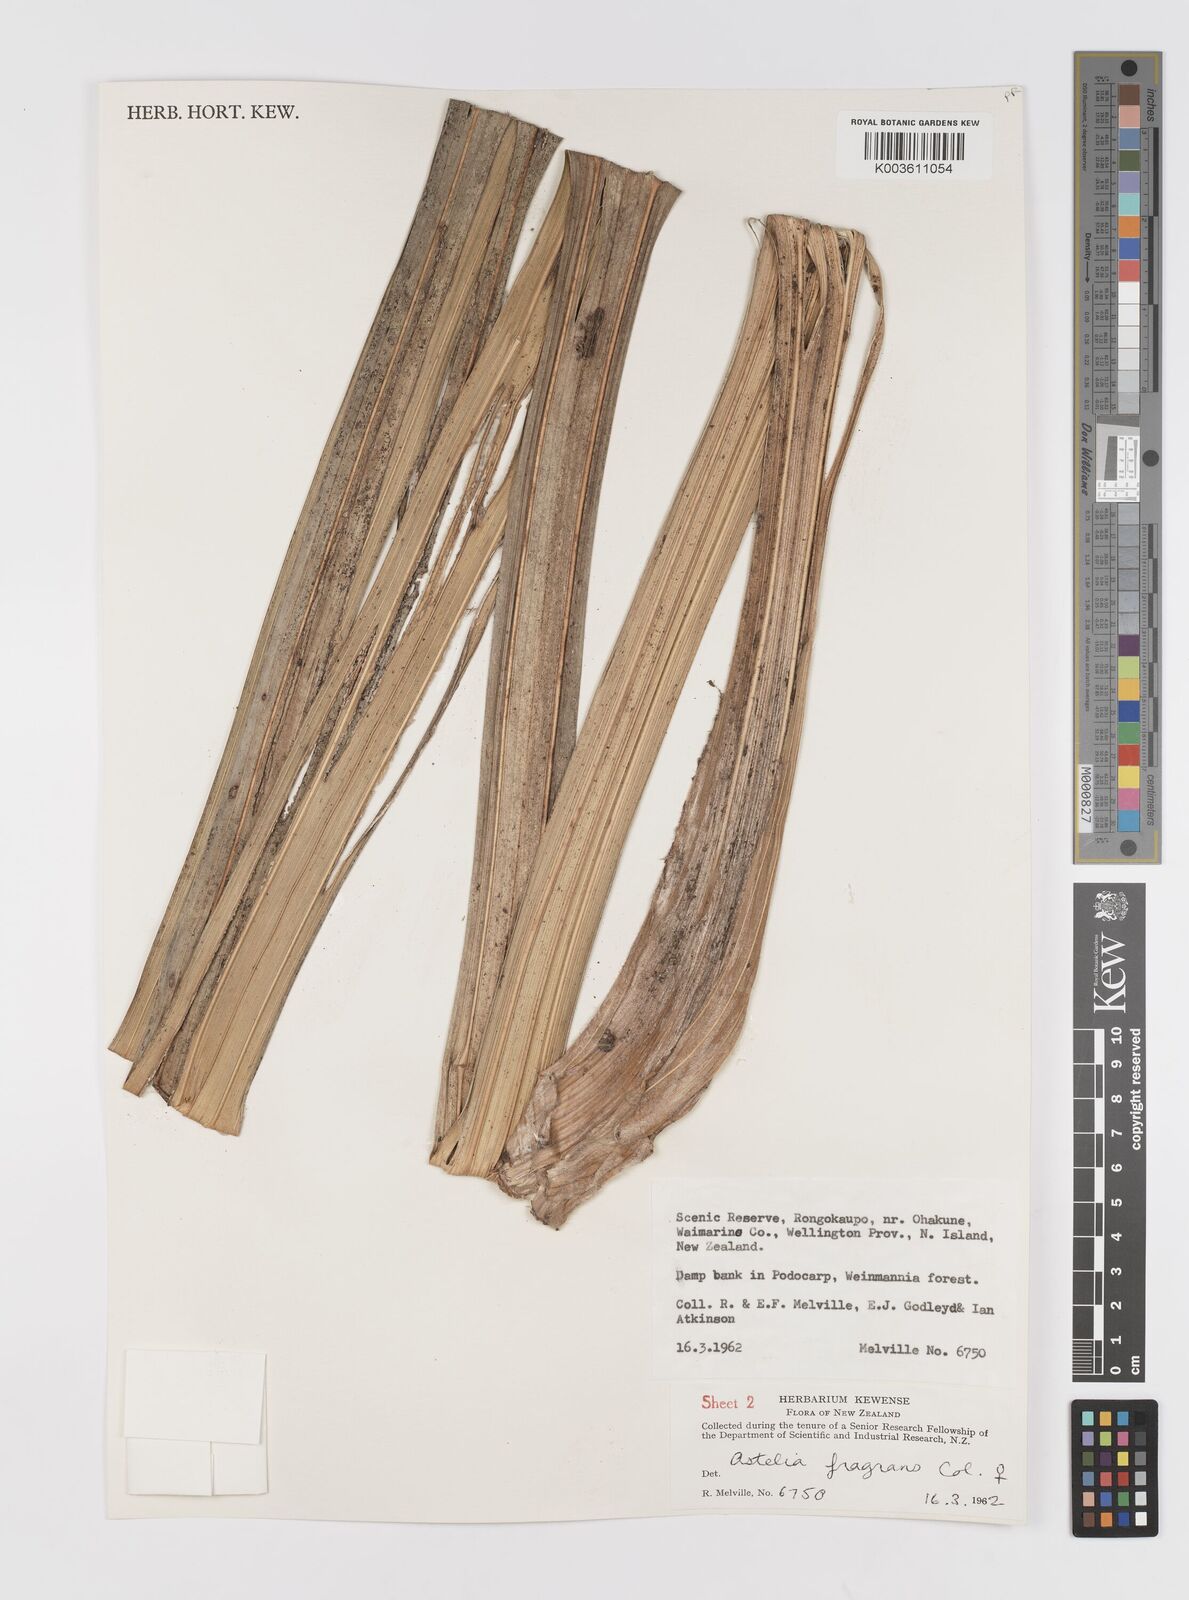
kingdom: Plantae
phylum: Tracheophyta
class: Liliopsida
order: Asparagales
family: Asteliaceae
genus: Astelia
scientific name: Astelia fragrans
